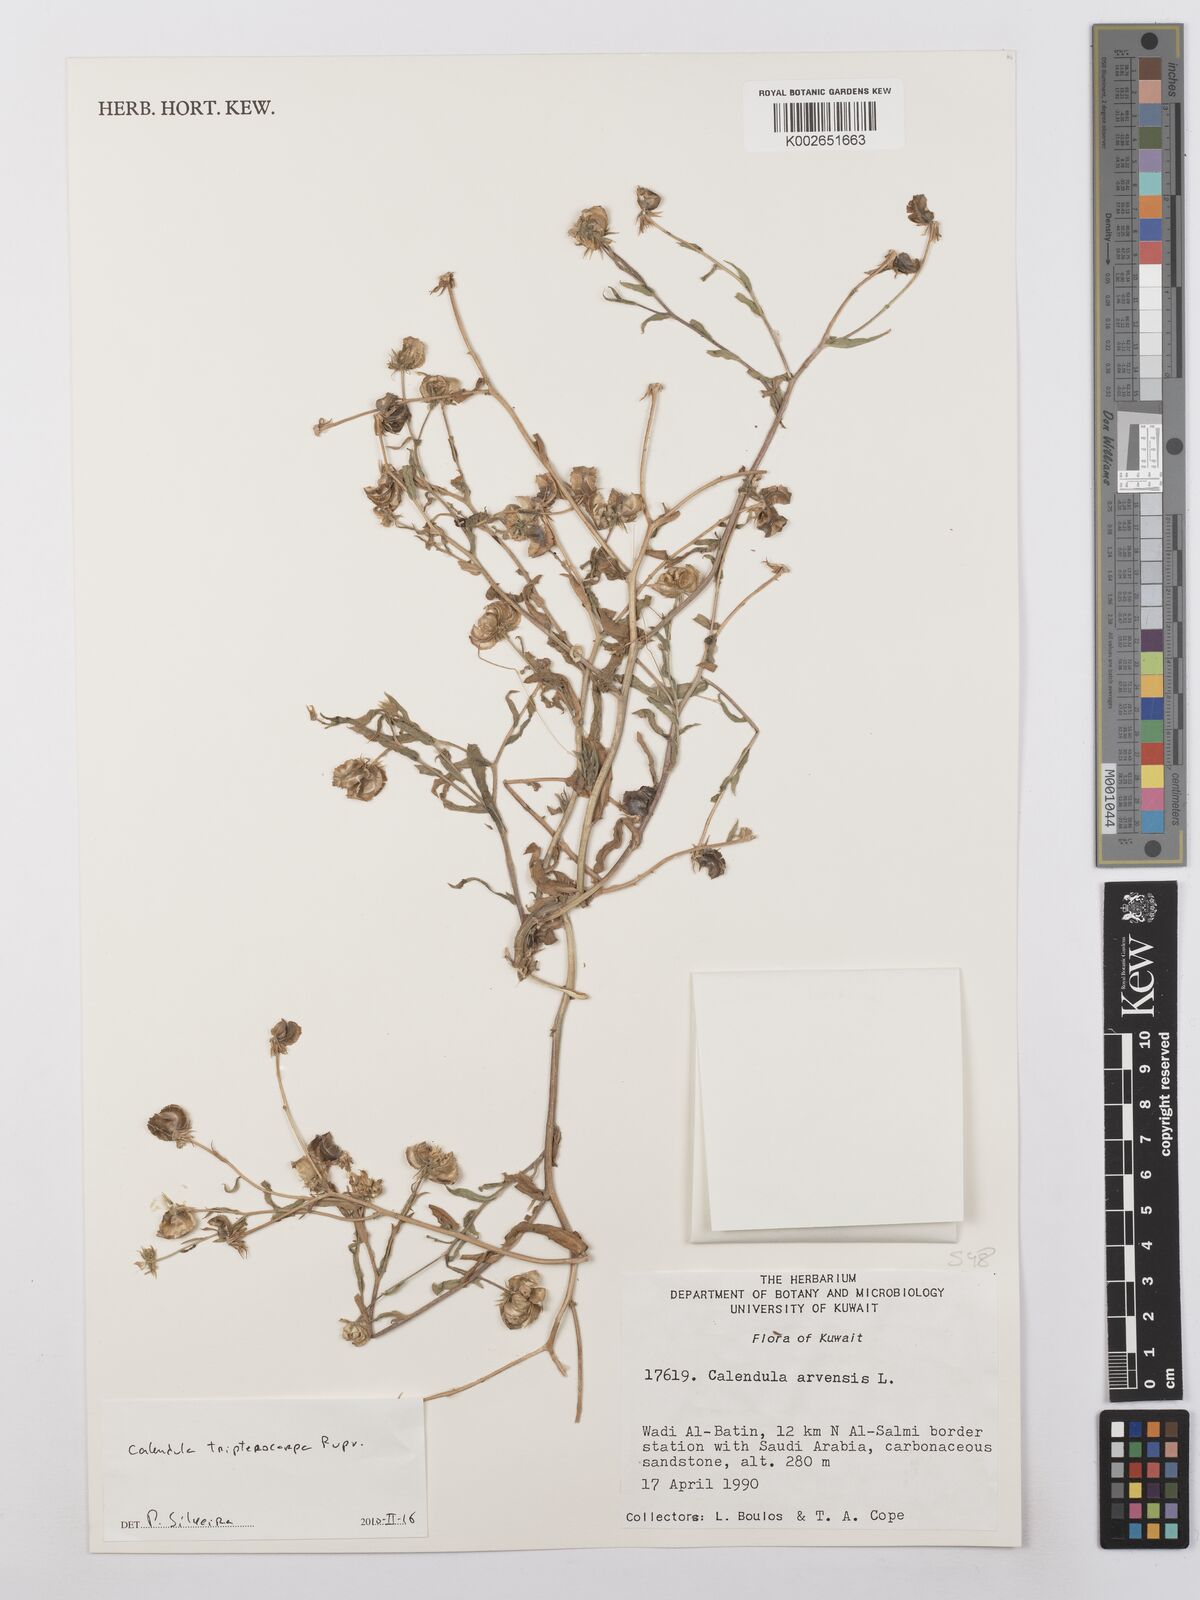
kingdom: Plantae
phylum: Tracheophyta
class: Magnoliopsida
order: Asterales
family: Asteraceae
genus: Calendula
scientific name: Calendula tripterocarpa
